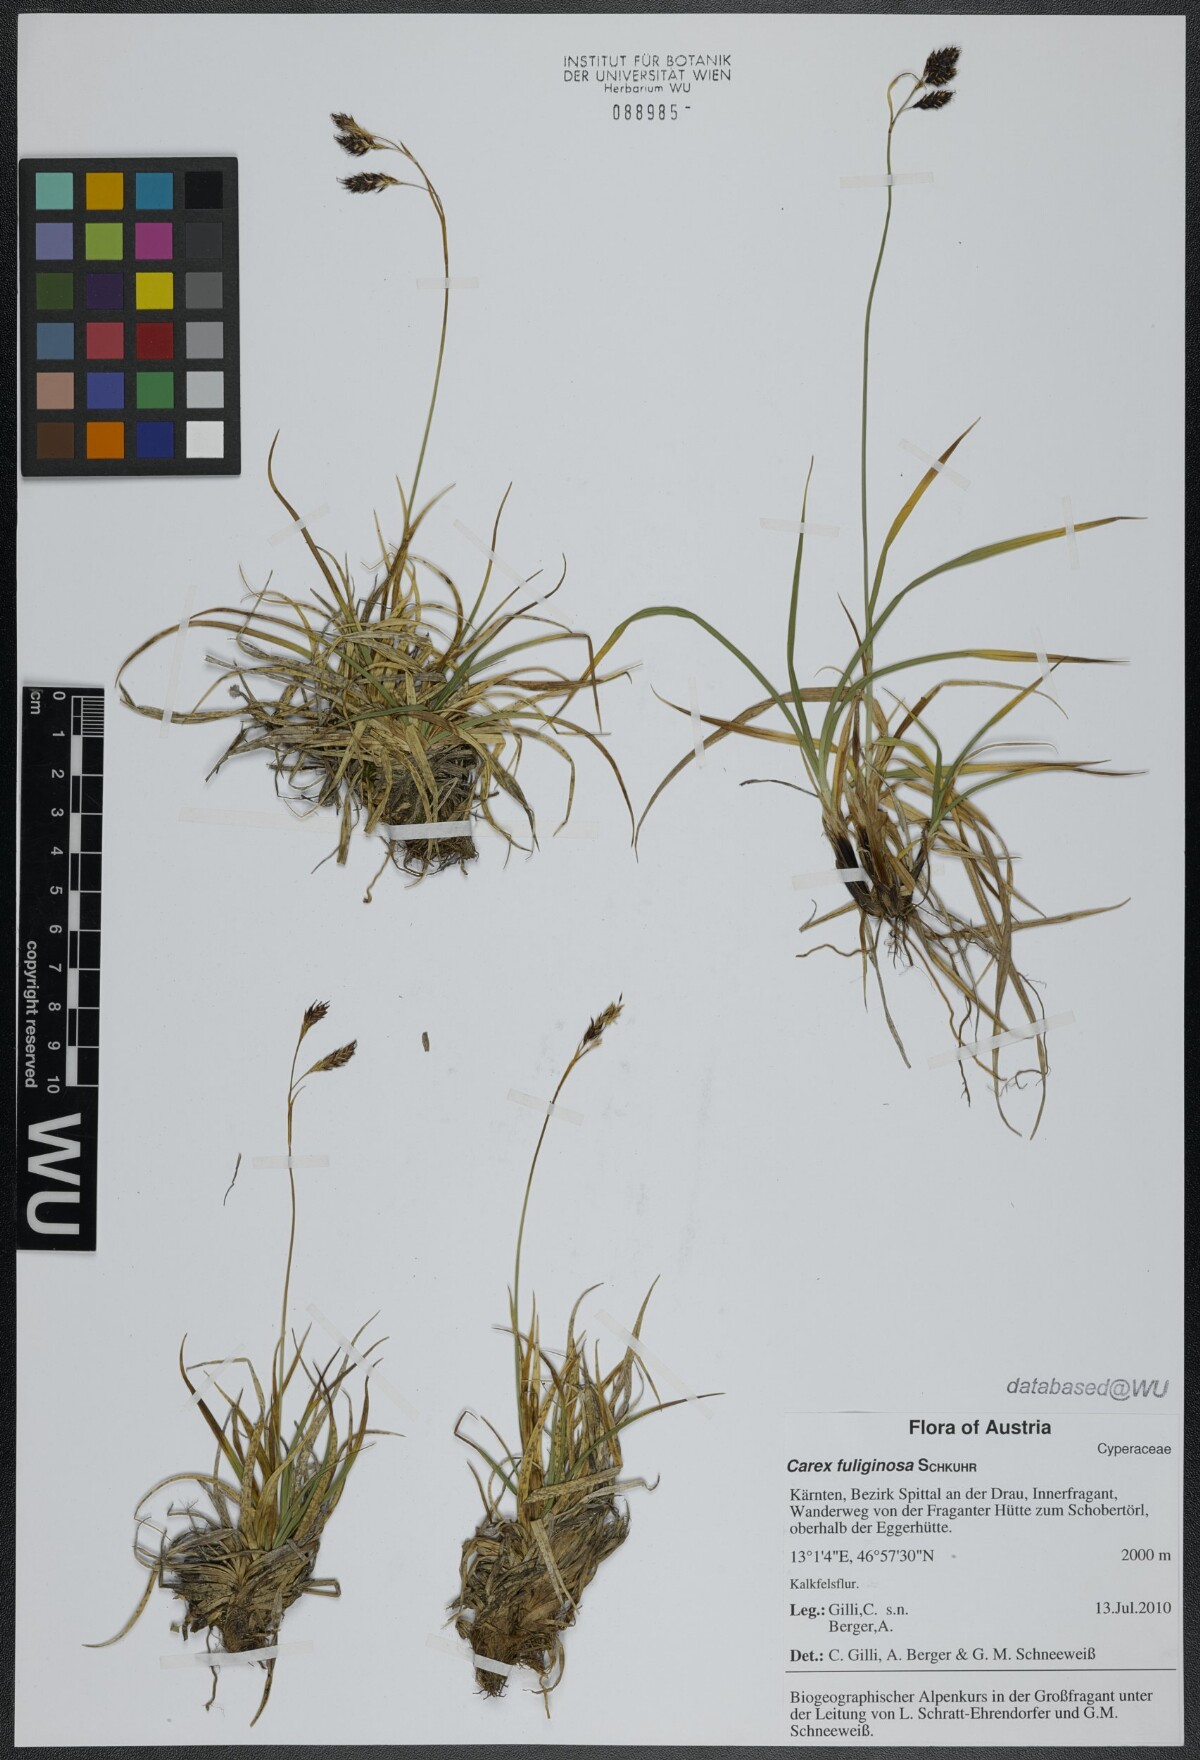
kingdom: Plantae
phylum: Tracheophyta
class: Liliopsida
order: Poales
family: Cyperaceae
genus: Carex
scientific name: Carex fuliginosa
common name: Few-flowered sedge
